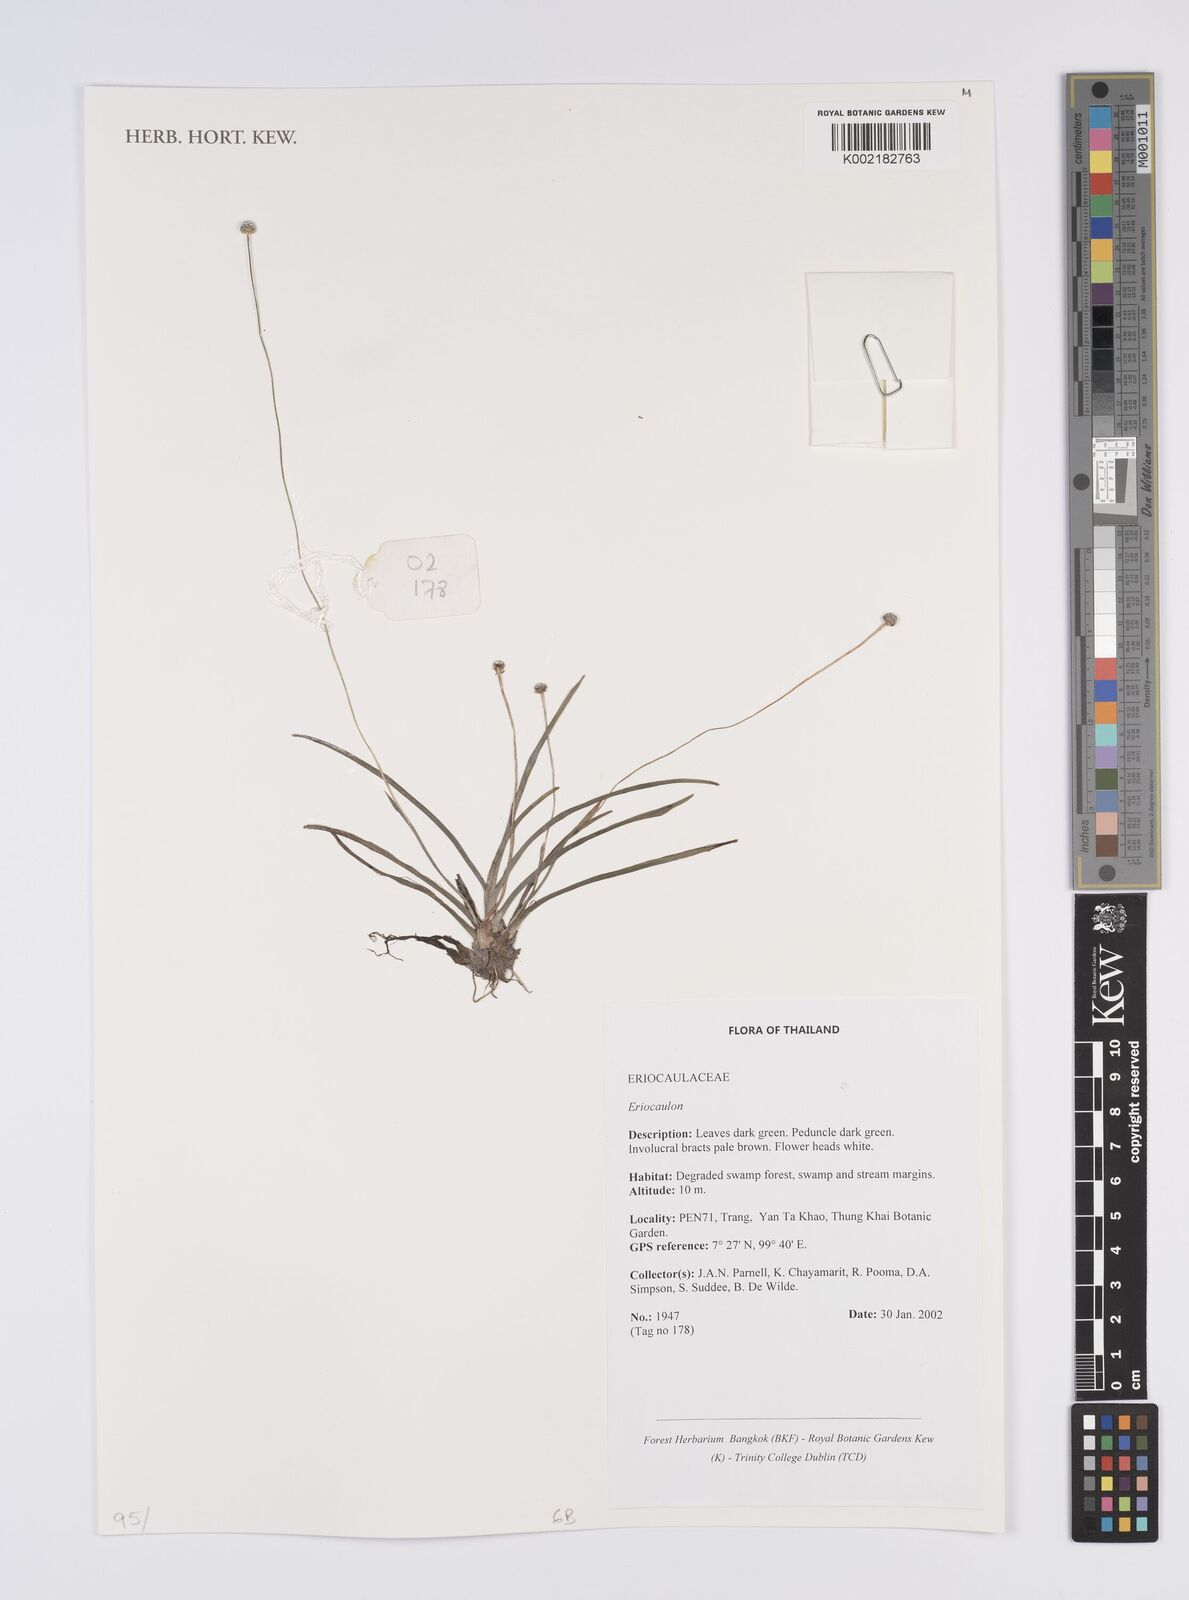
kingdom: Plantae
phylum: Tracheophyta
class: Liliopsida
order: Poales
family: Eriocaulaceae
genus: Eriocaulon
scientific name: Eriocaulon
